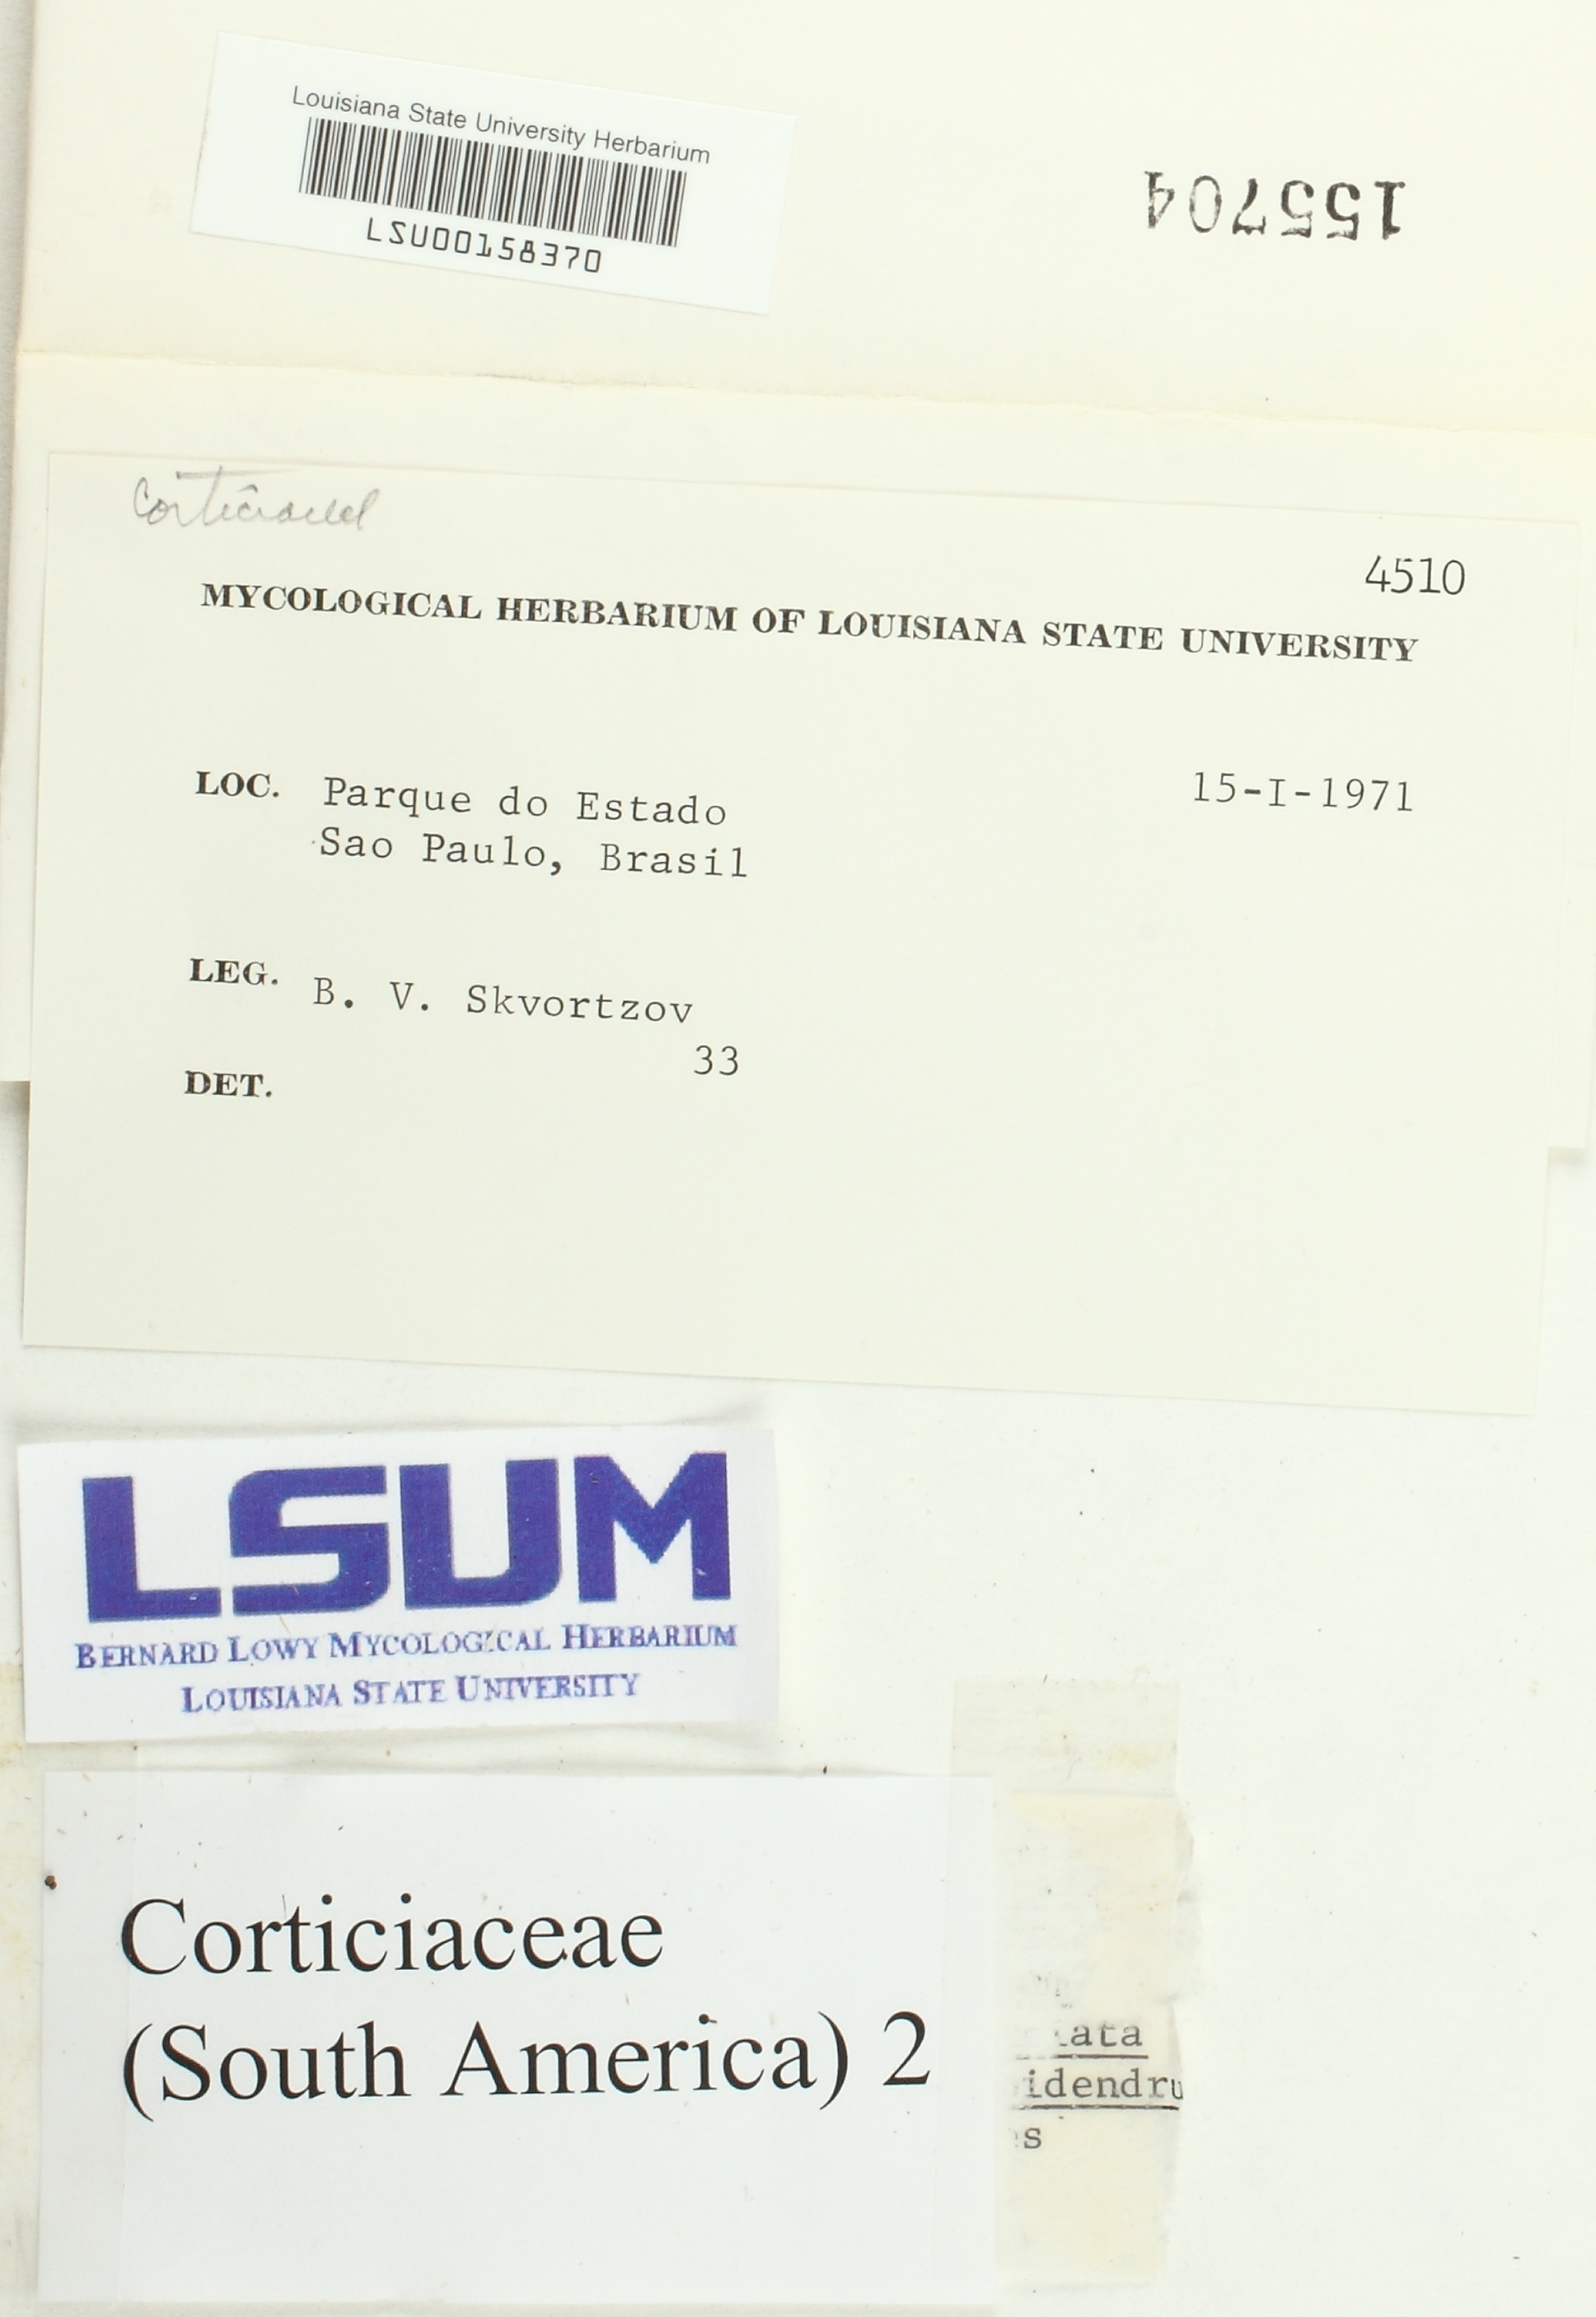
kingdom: Fungi
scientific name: Fungi
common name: Fungi
